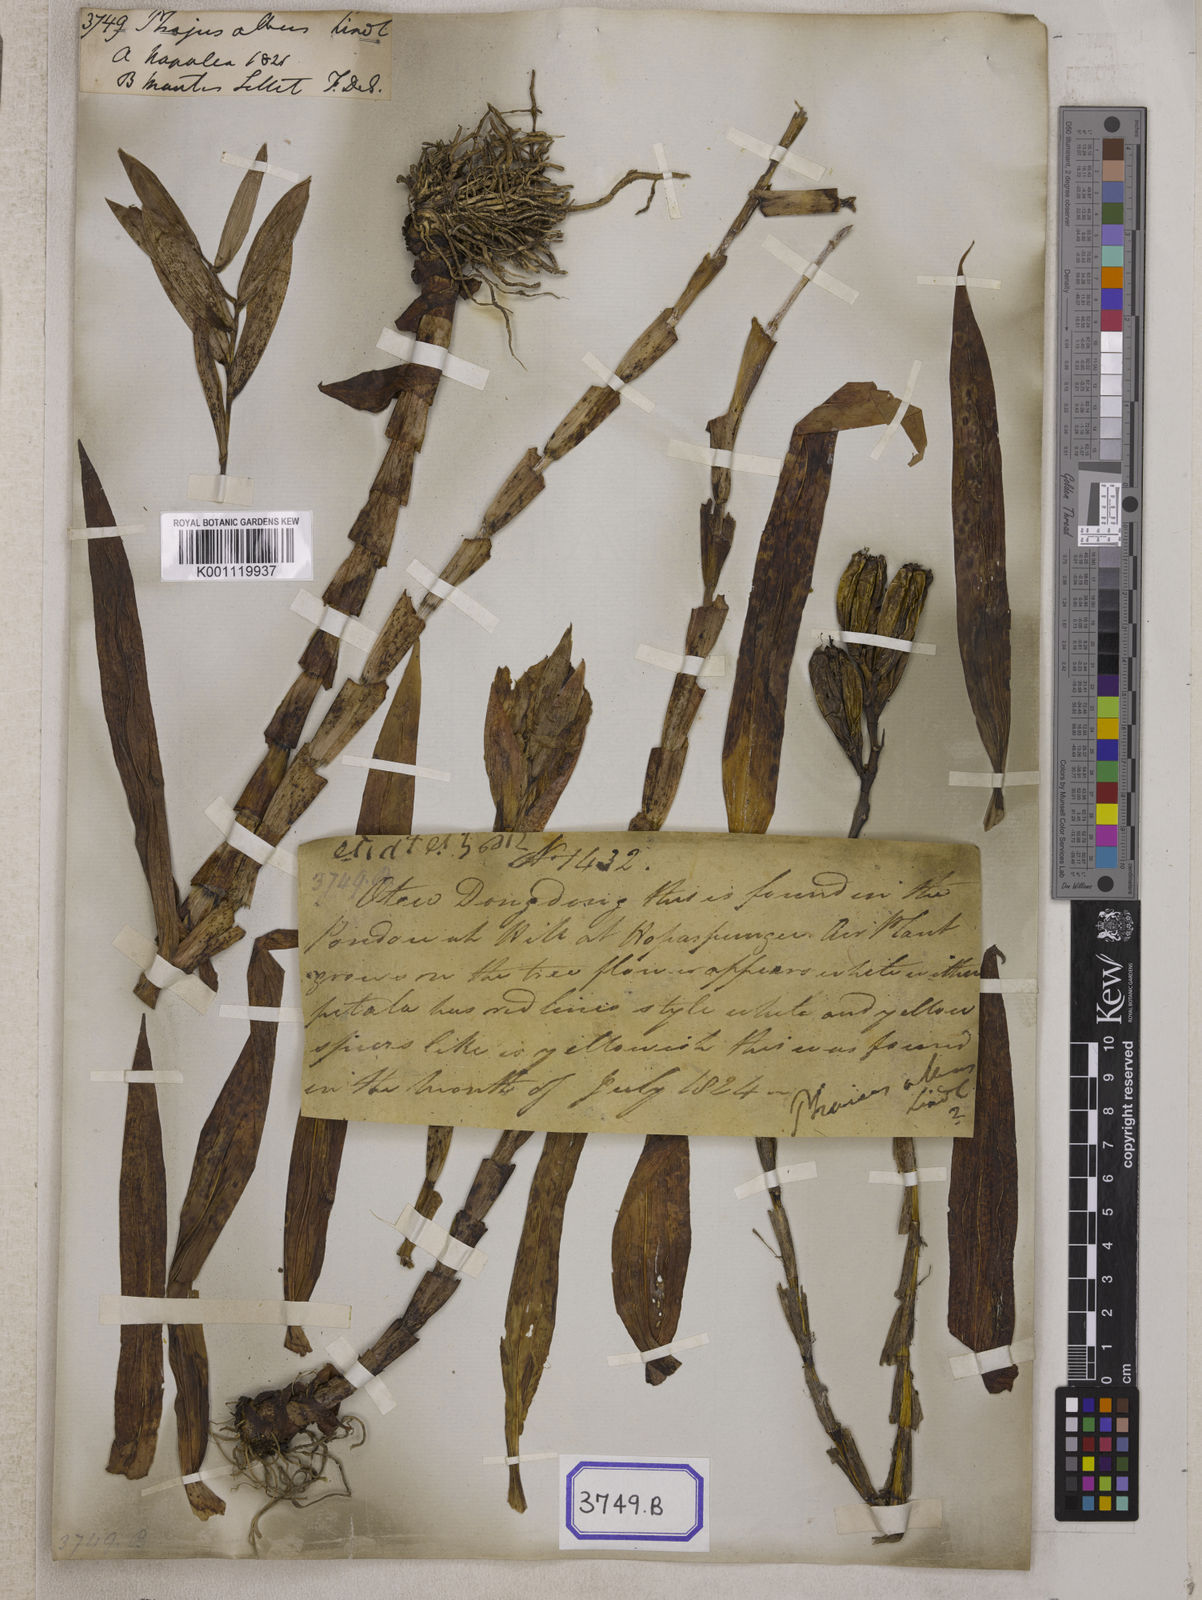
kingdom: Plantae
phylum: Tracheophyta
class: Liliopsida
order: Asparagales
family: Orchidaceae
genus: Thunia
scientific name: Thunia alba
